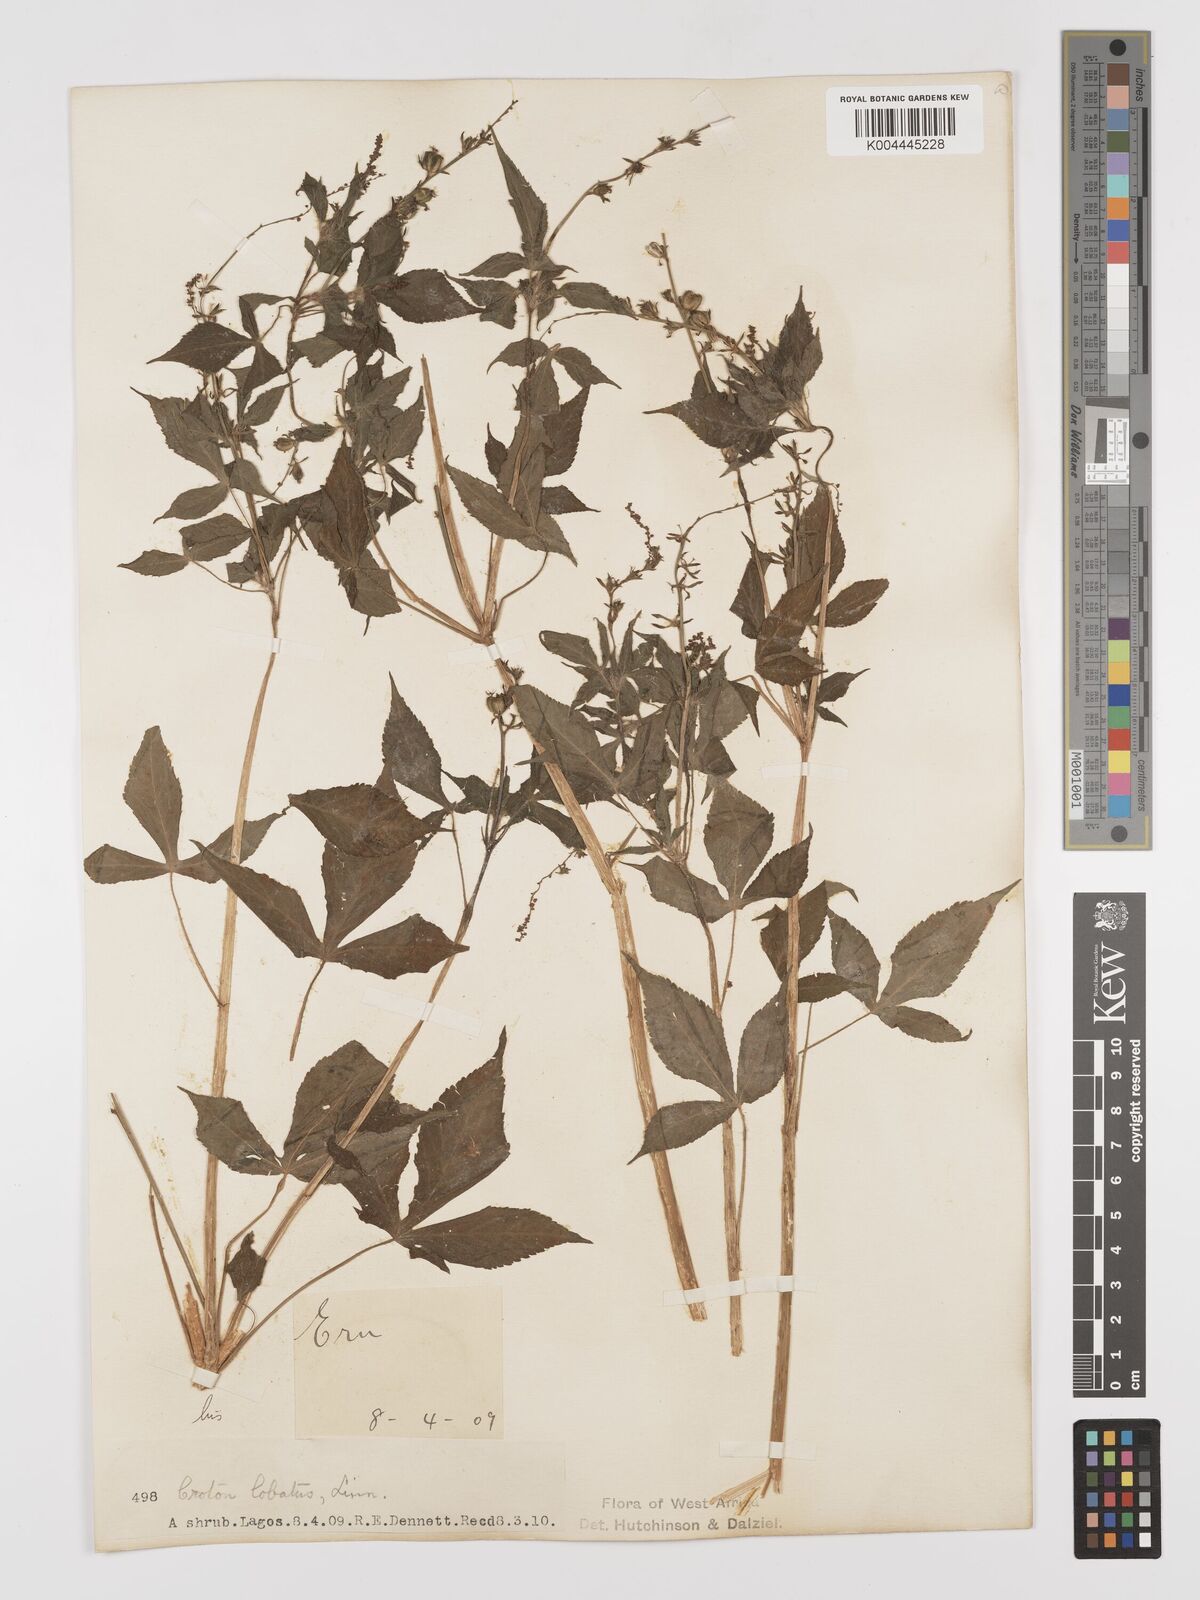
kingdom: Plantae
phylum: Tracheophyta
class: Magnoliopsida
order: Malpighiales
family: Euphorbiaceae
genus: Astraea
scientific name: Astraea lobata
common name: Lobed croton
